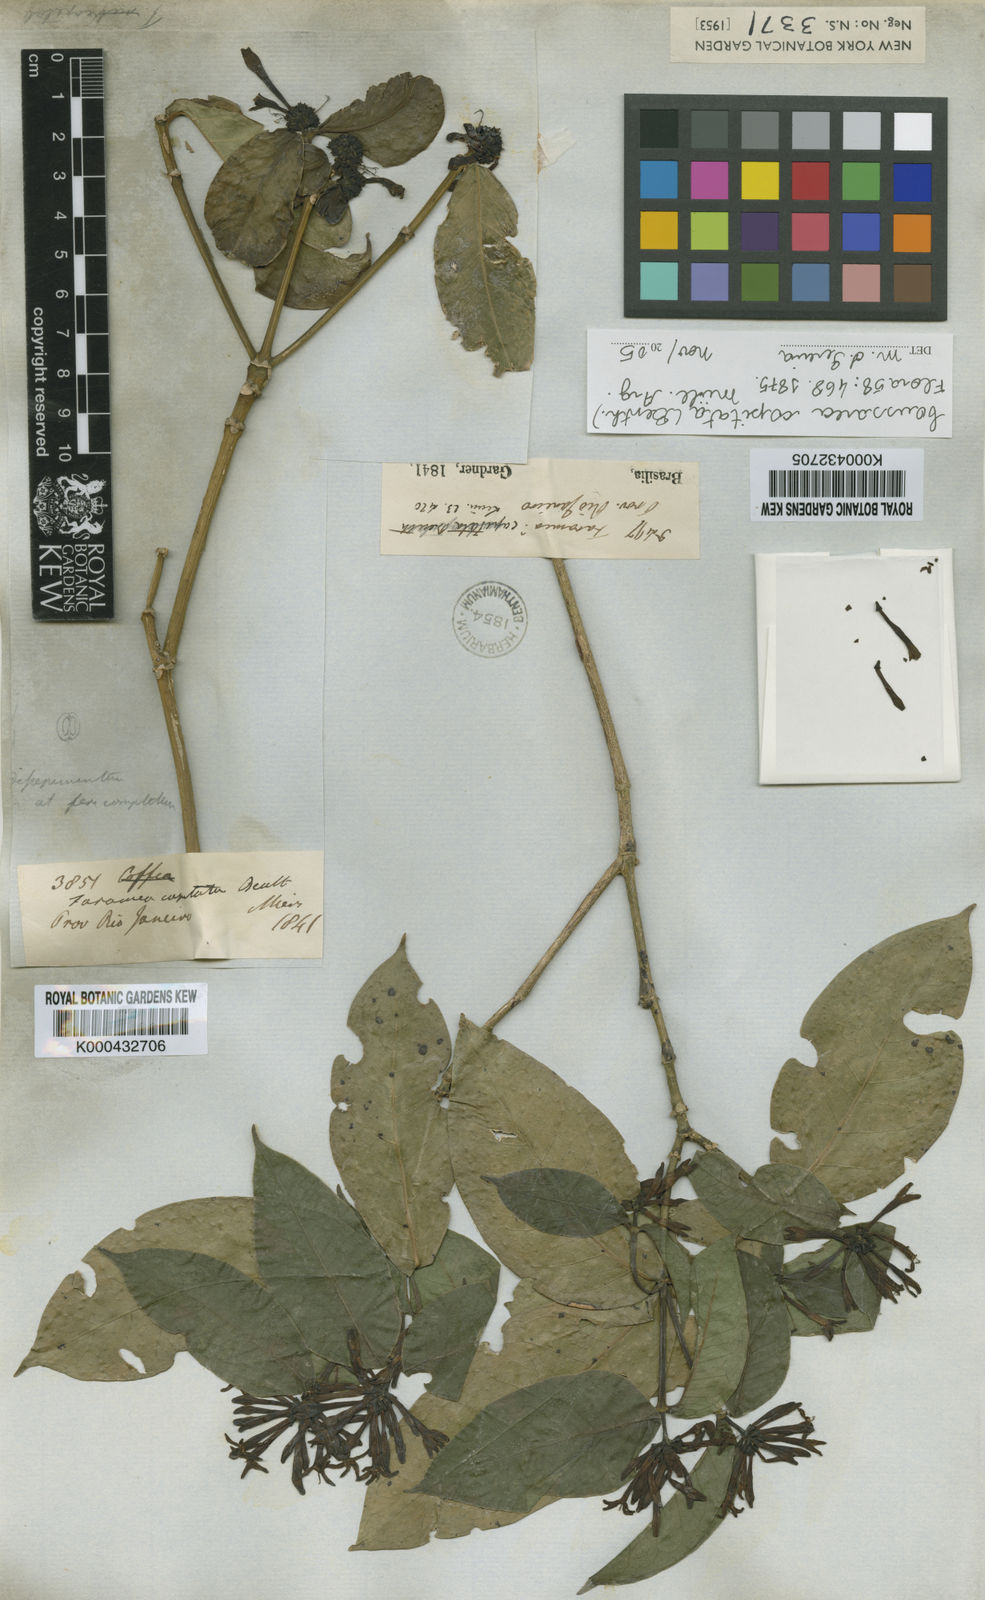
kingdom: Plantae
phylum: Tracheophyta
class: Magnoliopsida
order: Gentianales
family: Rubiaceae
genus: Coussarea
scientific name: Coussarea
